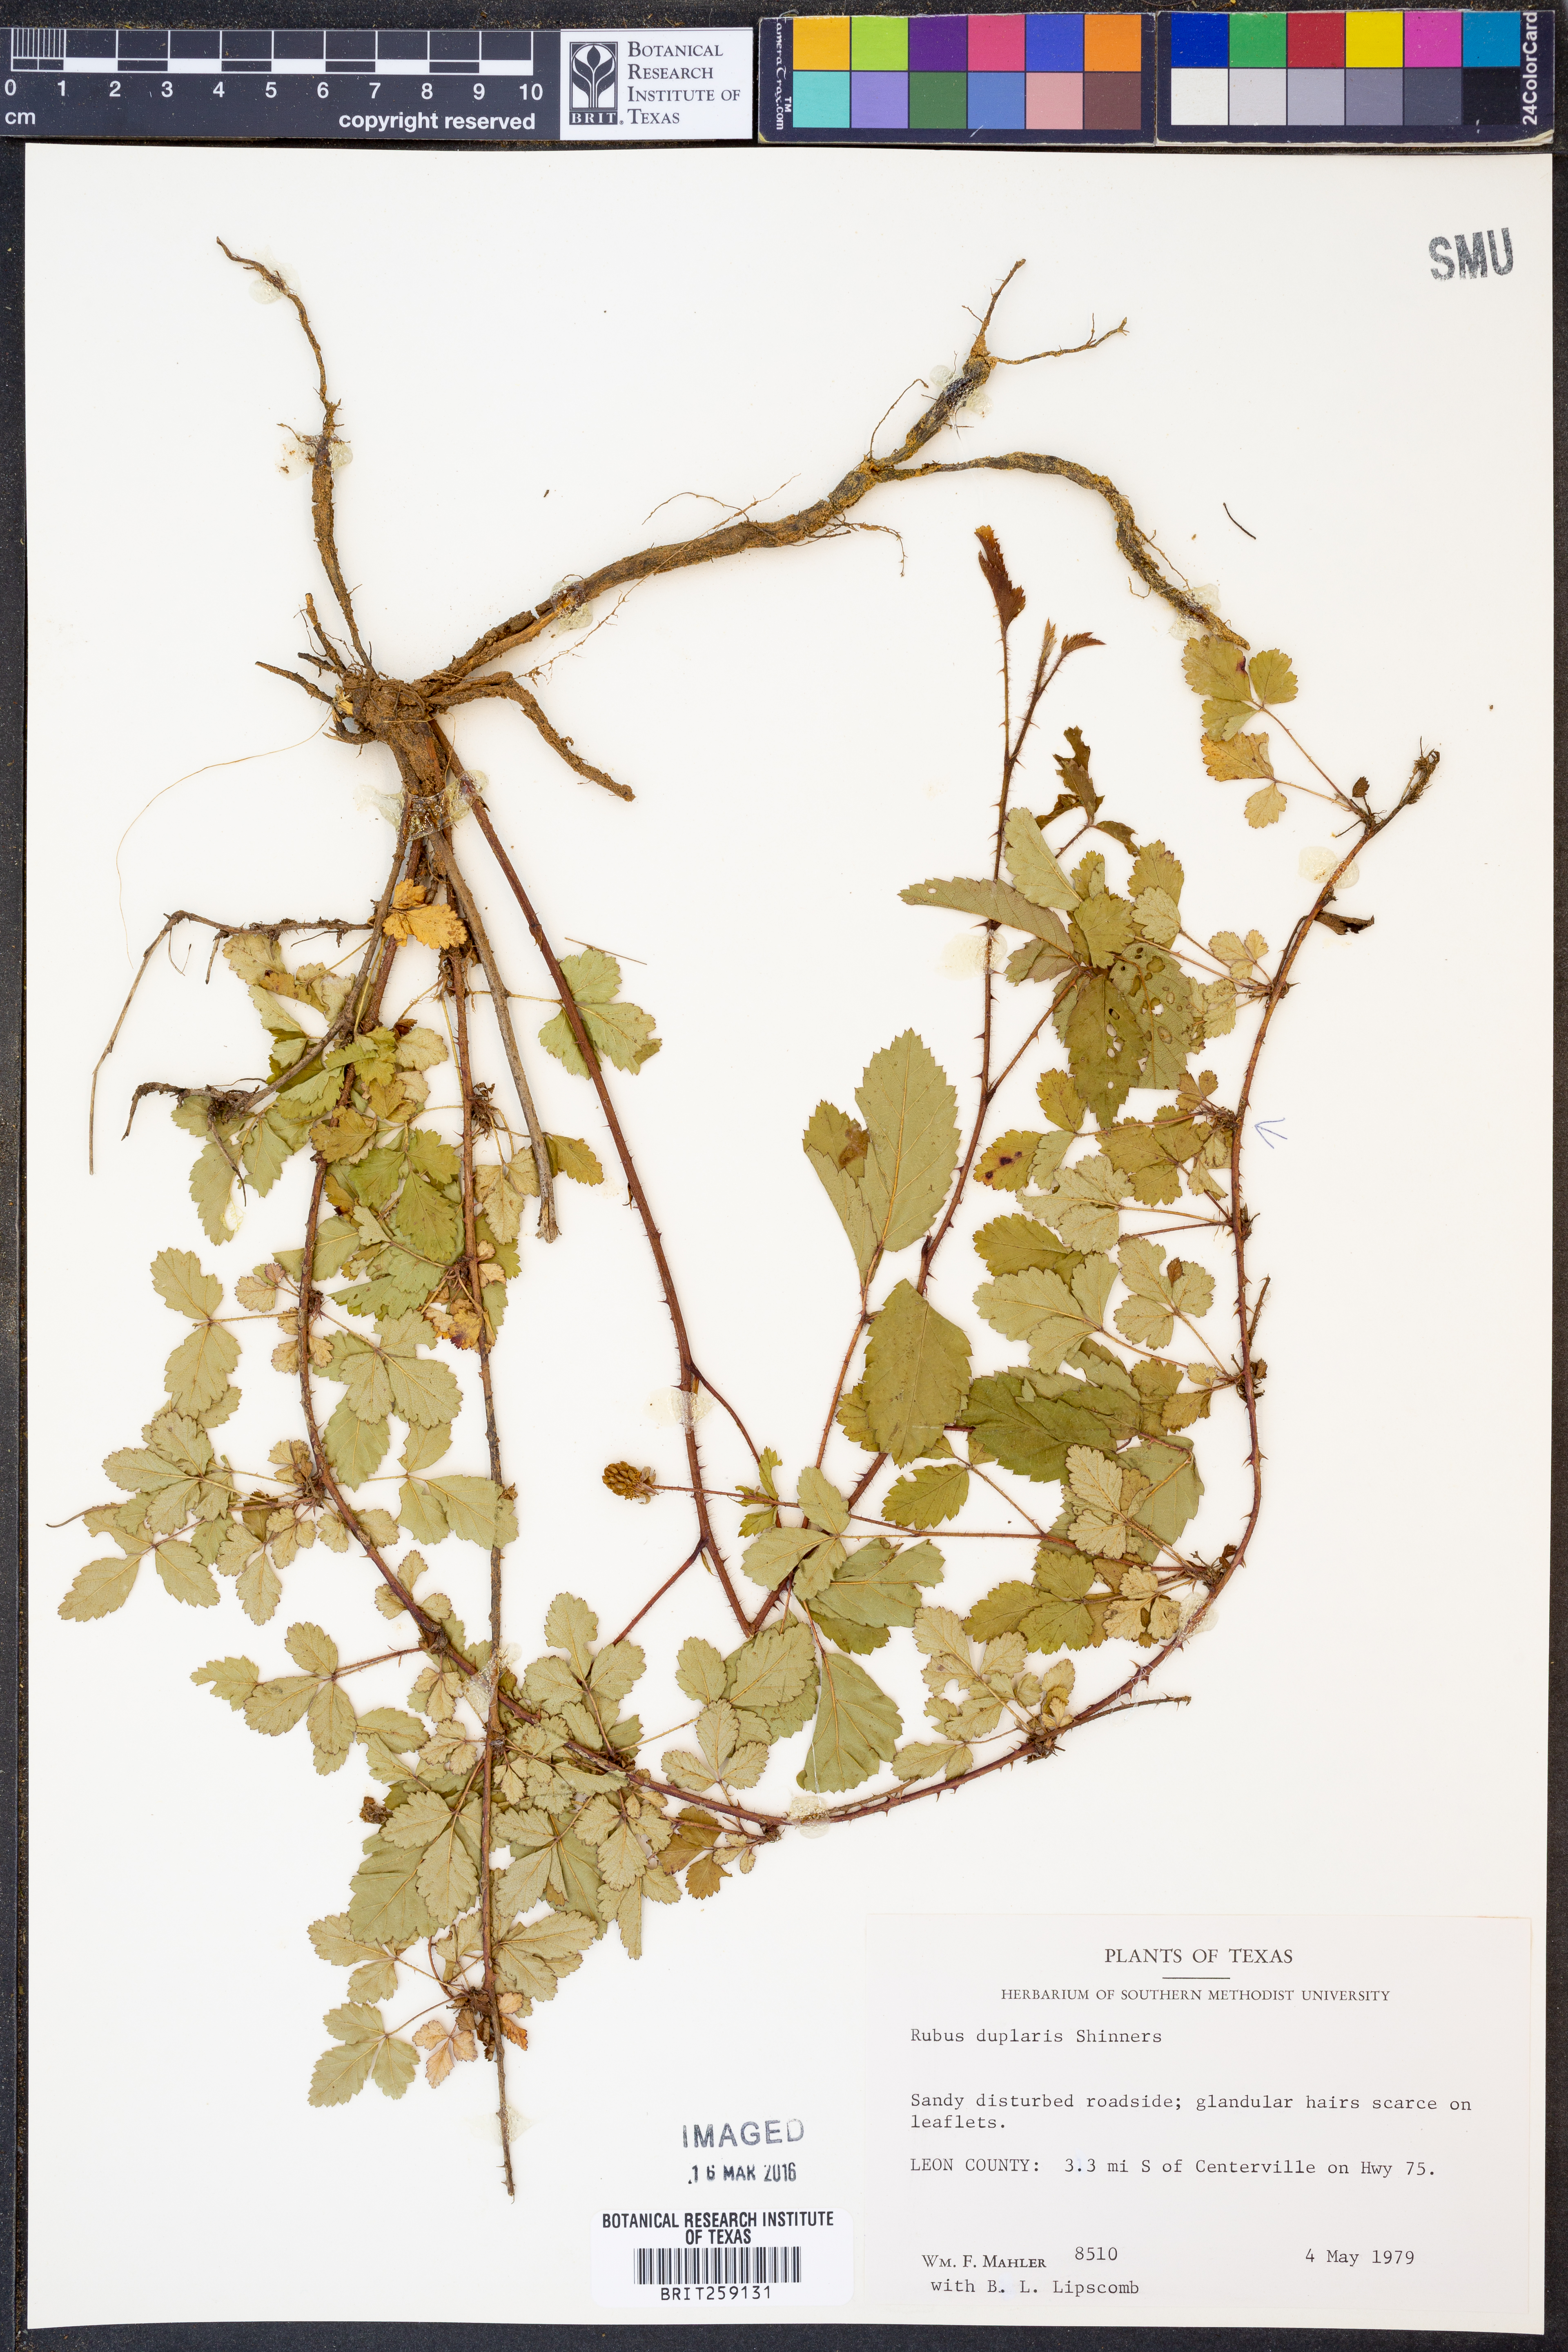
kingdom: Plantae
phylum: Tracheophyta
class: Magnoliopsida
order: Rosales
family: Rosaceae
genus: Rubus
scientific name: Rubus riograndis
